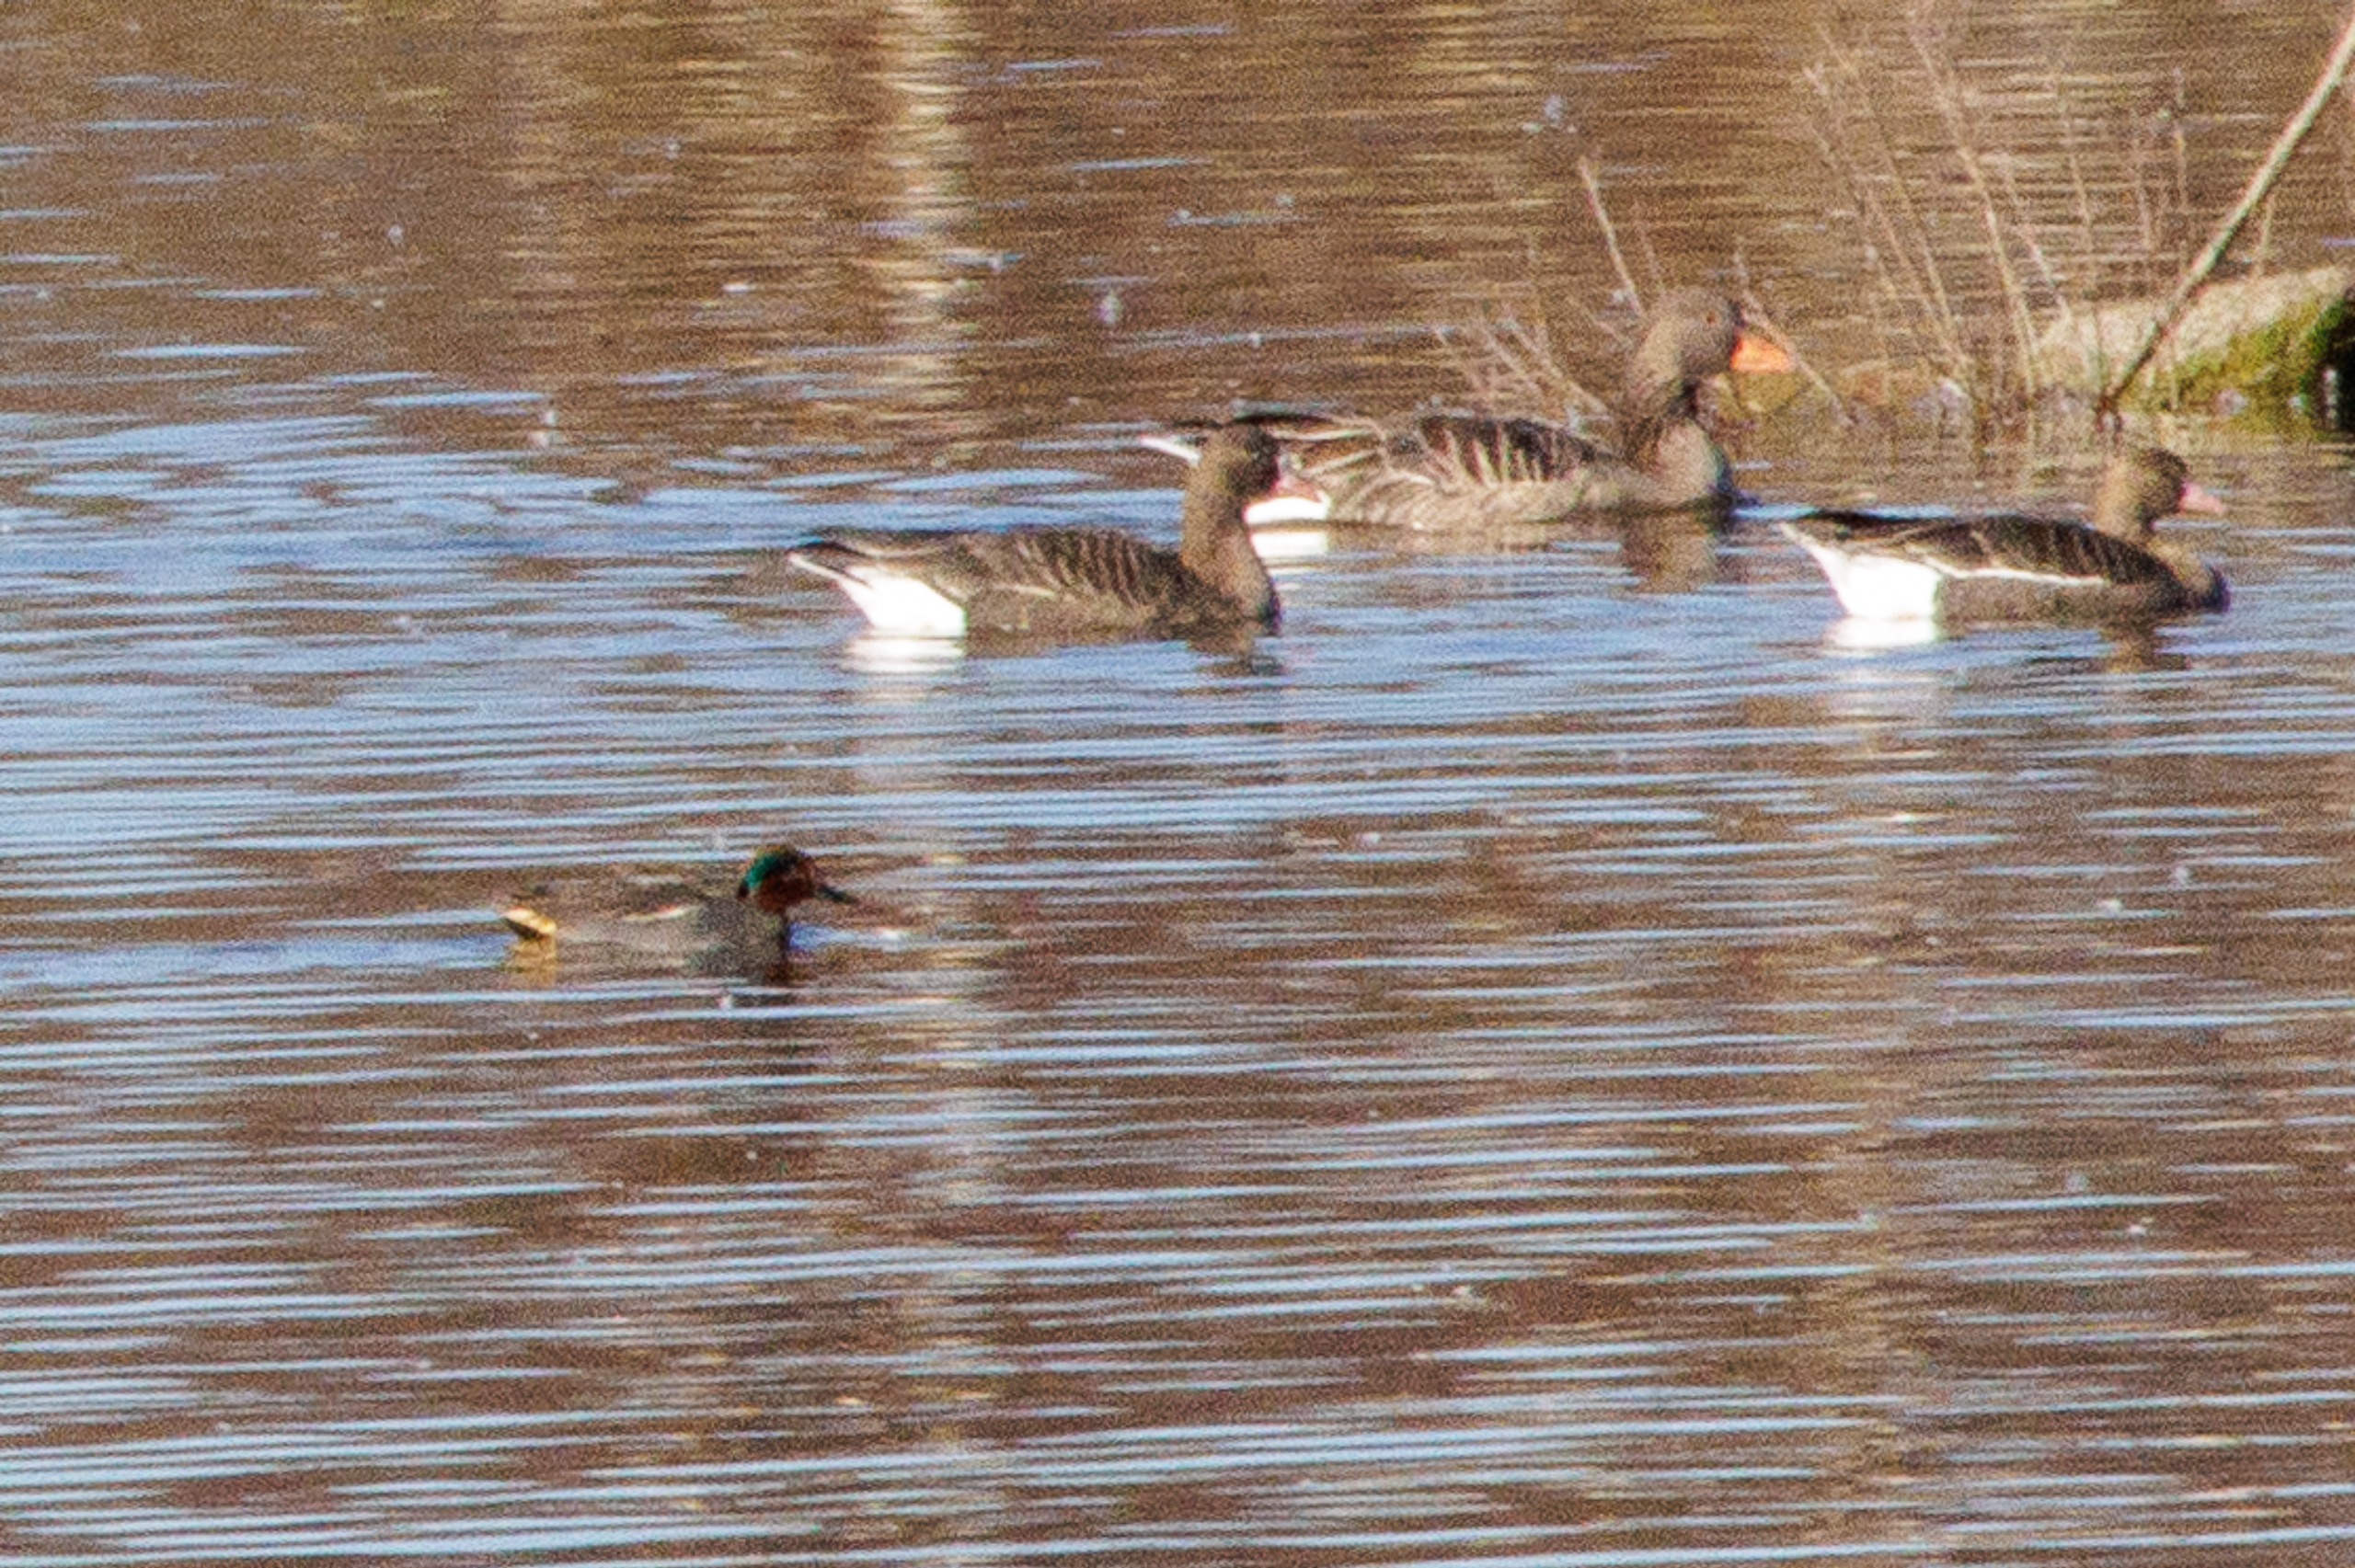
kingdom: Animalia
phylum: Chordata
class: Aves
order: Anseriformes
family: Anatidae
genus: Anas
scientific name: Anas crecca
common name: Krikand
